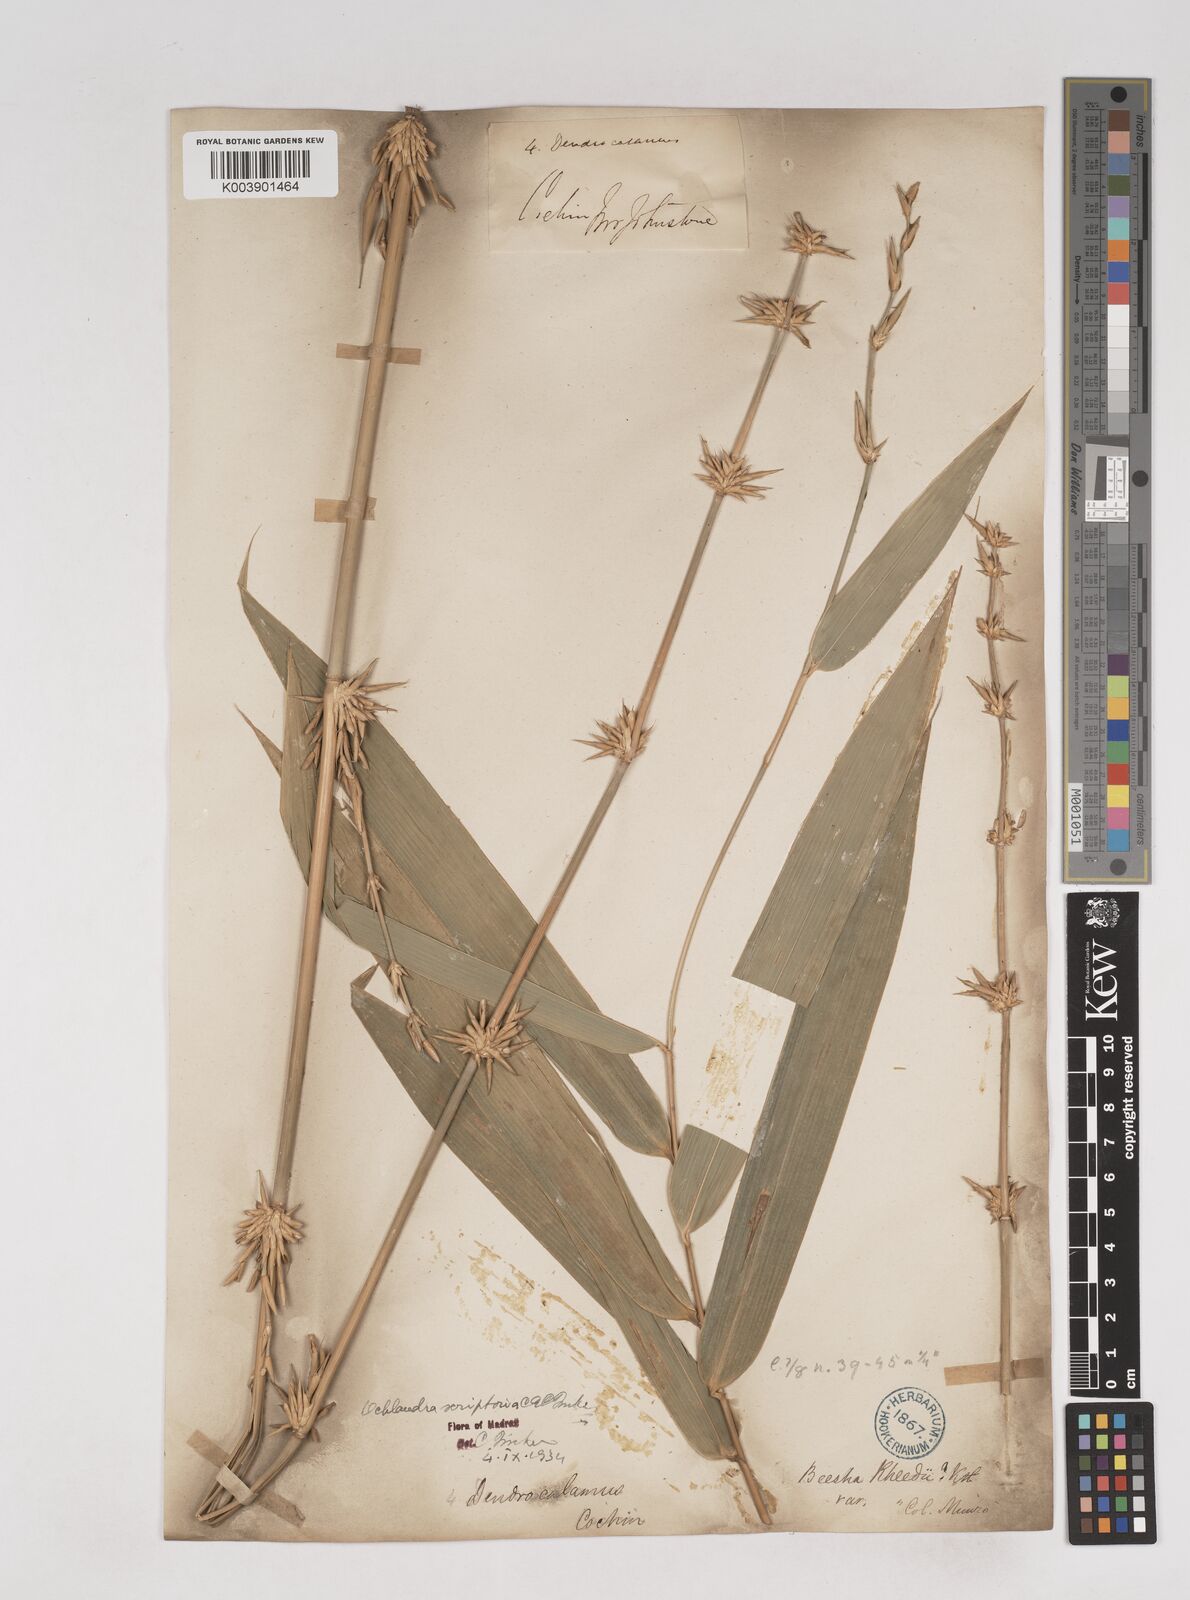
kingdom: Plantae
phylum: Tracheophyta
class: Liliopsida
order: Poales
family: Poaceae
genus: Ochlandra
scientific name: Ochlandra scriptoria
